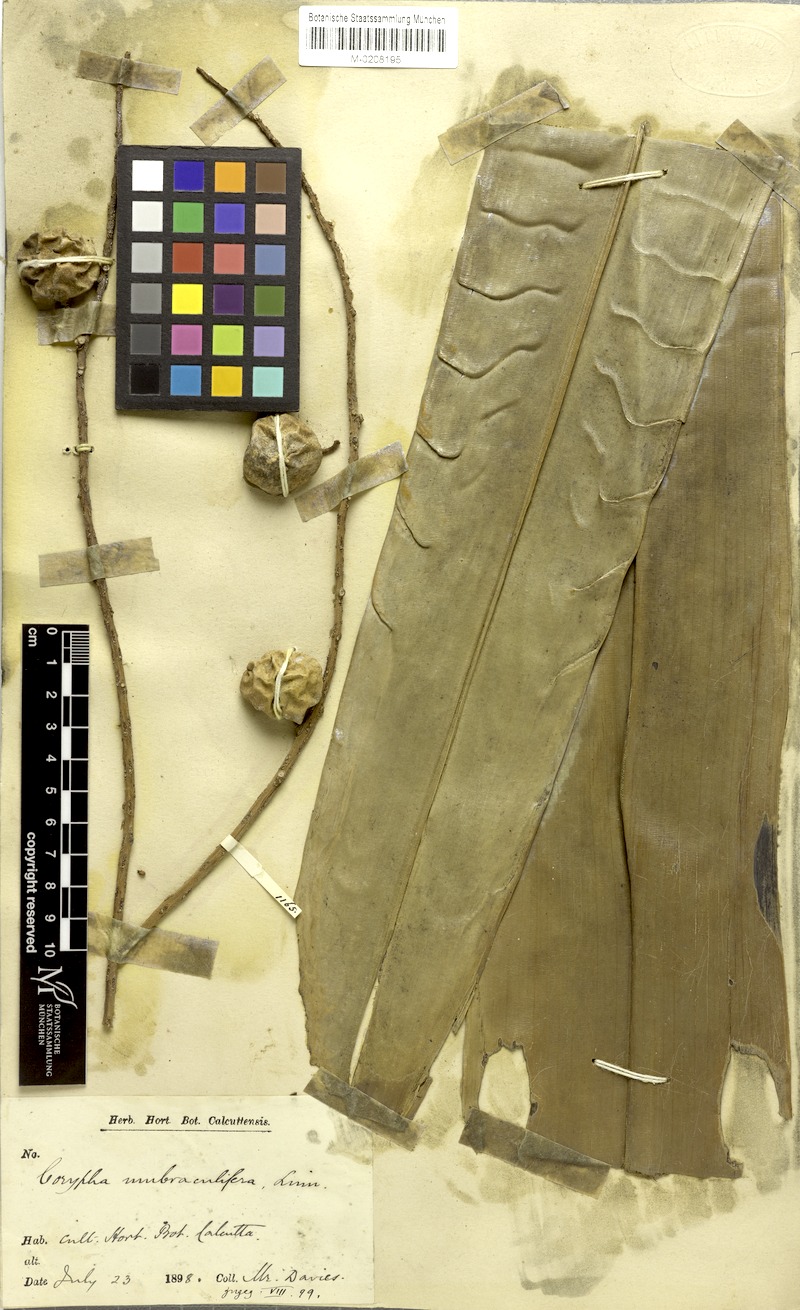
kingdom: Plantae
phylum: Tracheophyta
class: Liliopsida
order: Arecales
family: Arecaceae
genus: Corypha
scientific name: Corypha umbraculifera
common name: Talipot palm
